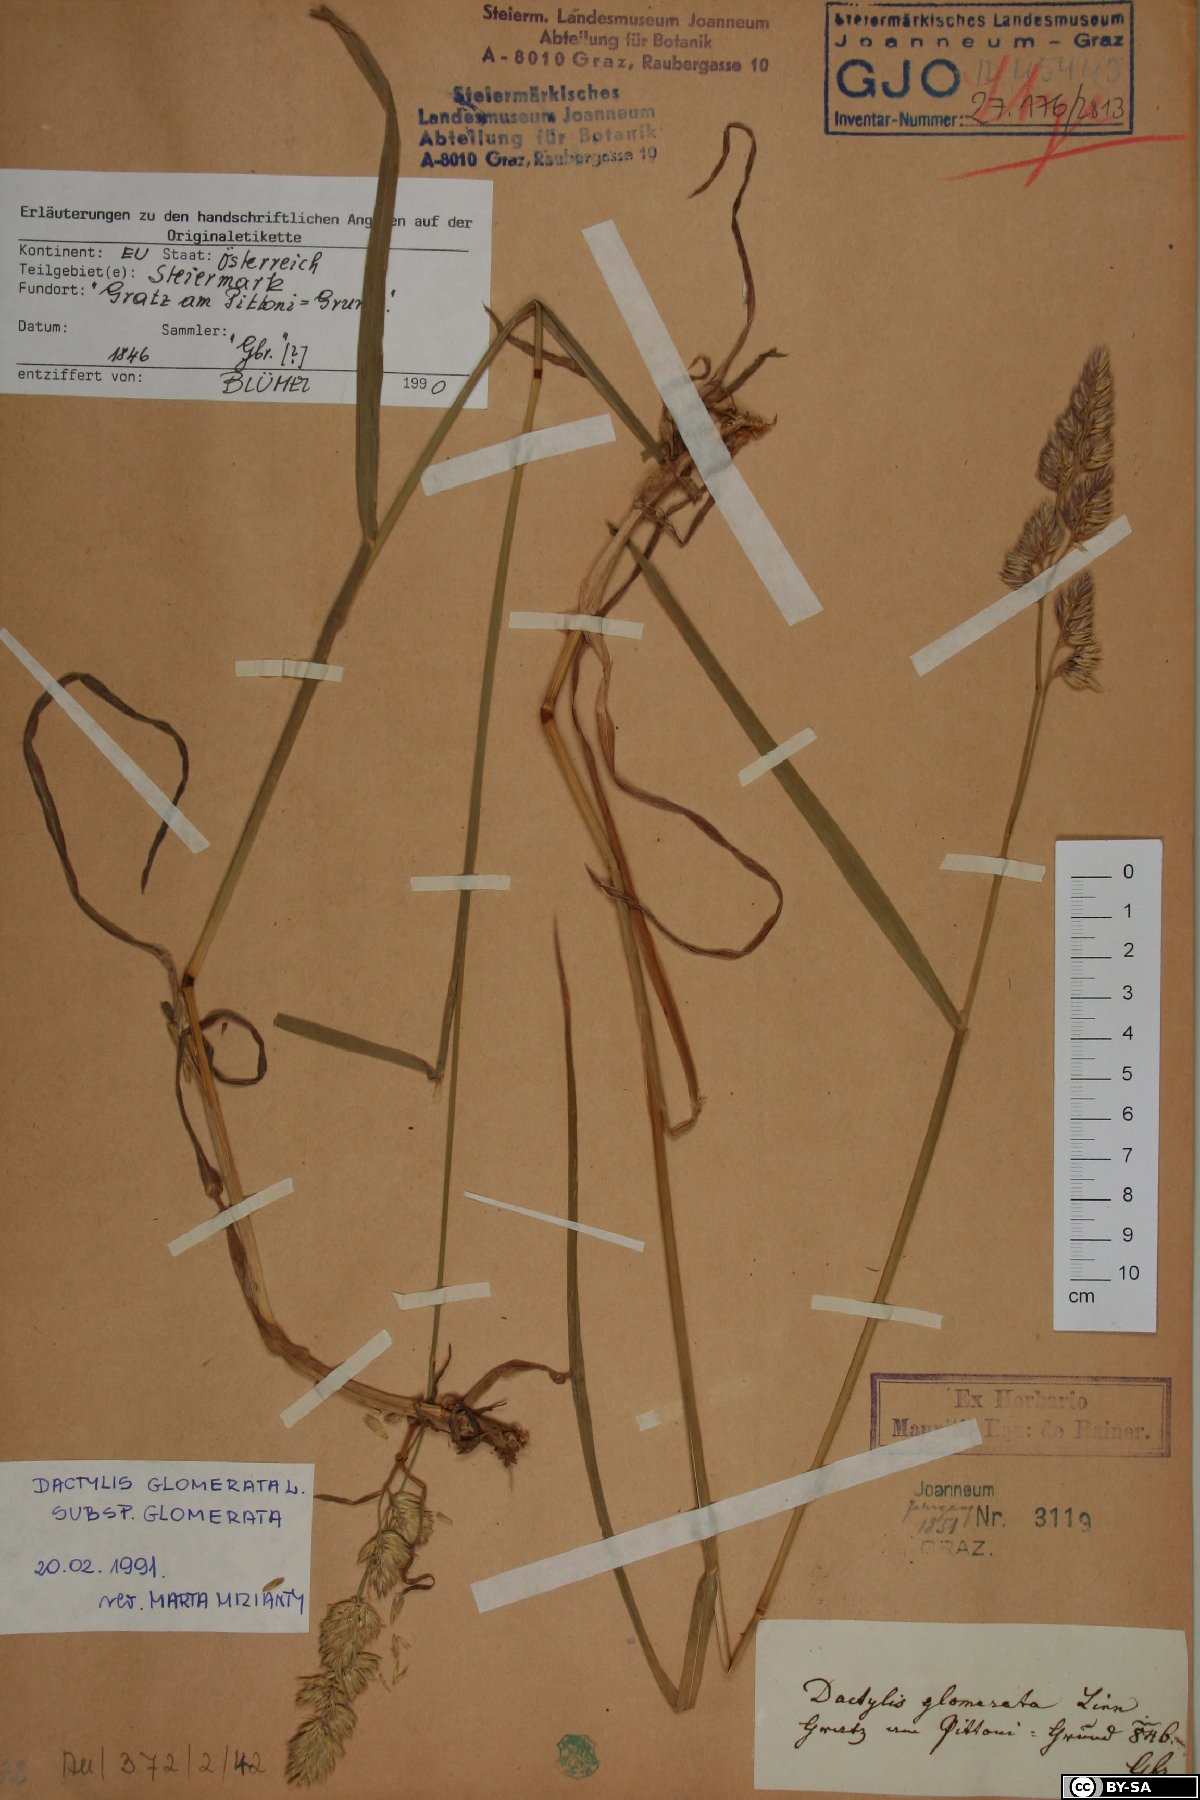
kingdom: Plantae
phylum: Tracheophyta
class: Liliopsida
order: Poales
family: Poaceae
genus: Dactylis
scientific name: Dactylis glomerata
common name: Orchardgrass
